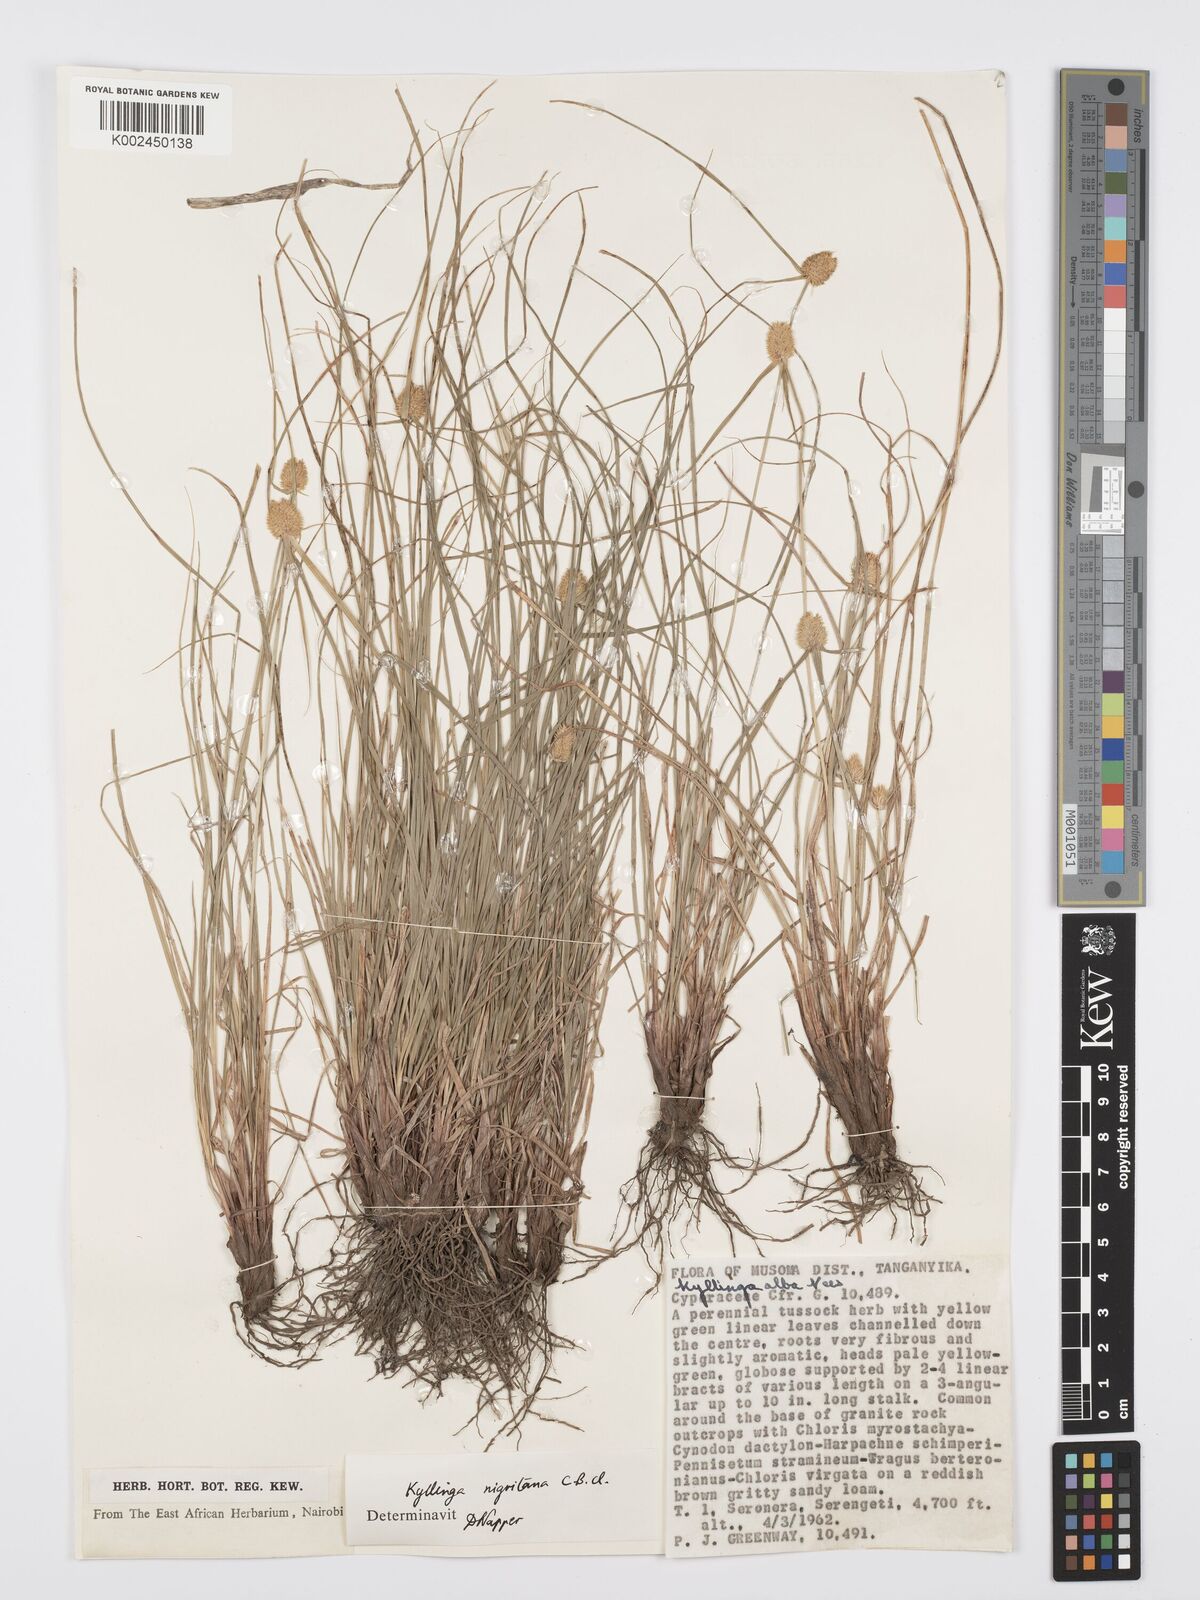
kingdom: Plantae
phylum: Tracheophyta
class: Liliopsida
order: Poales
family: Cyperaceae
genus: Cyperus
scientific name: Cyperus
